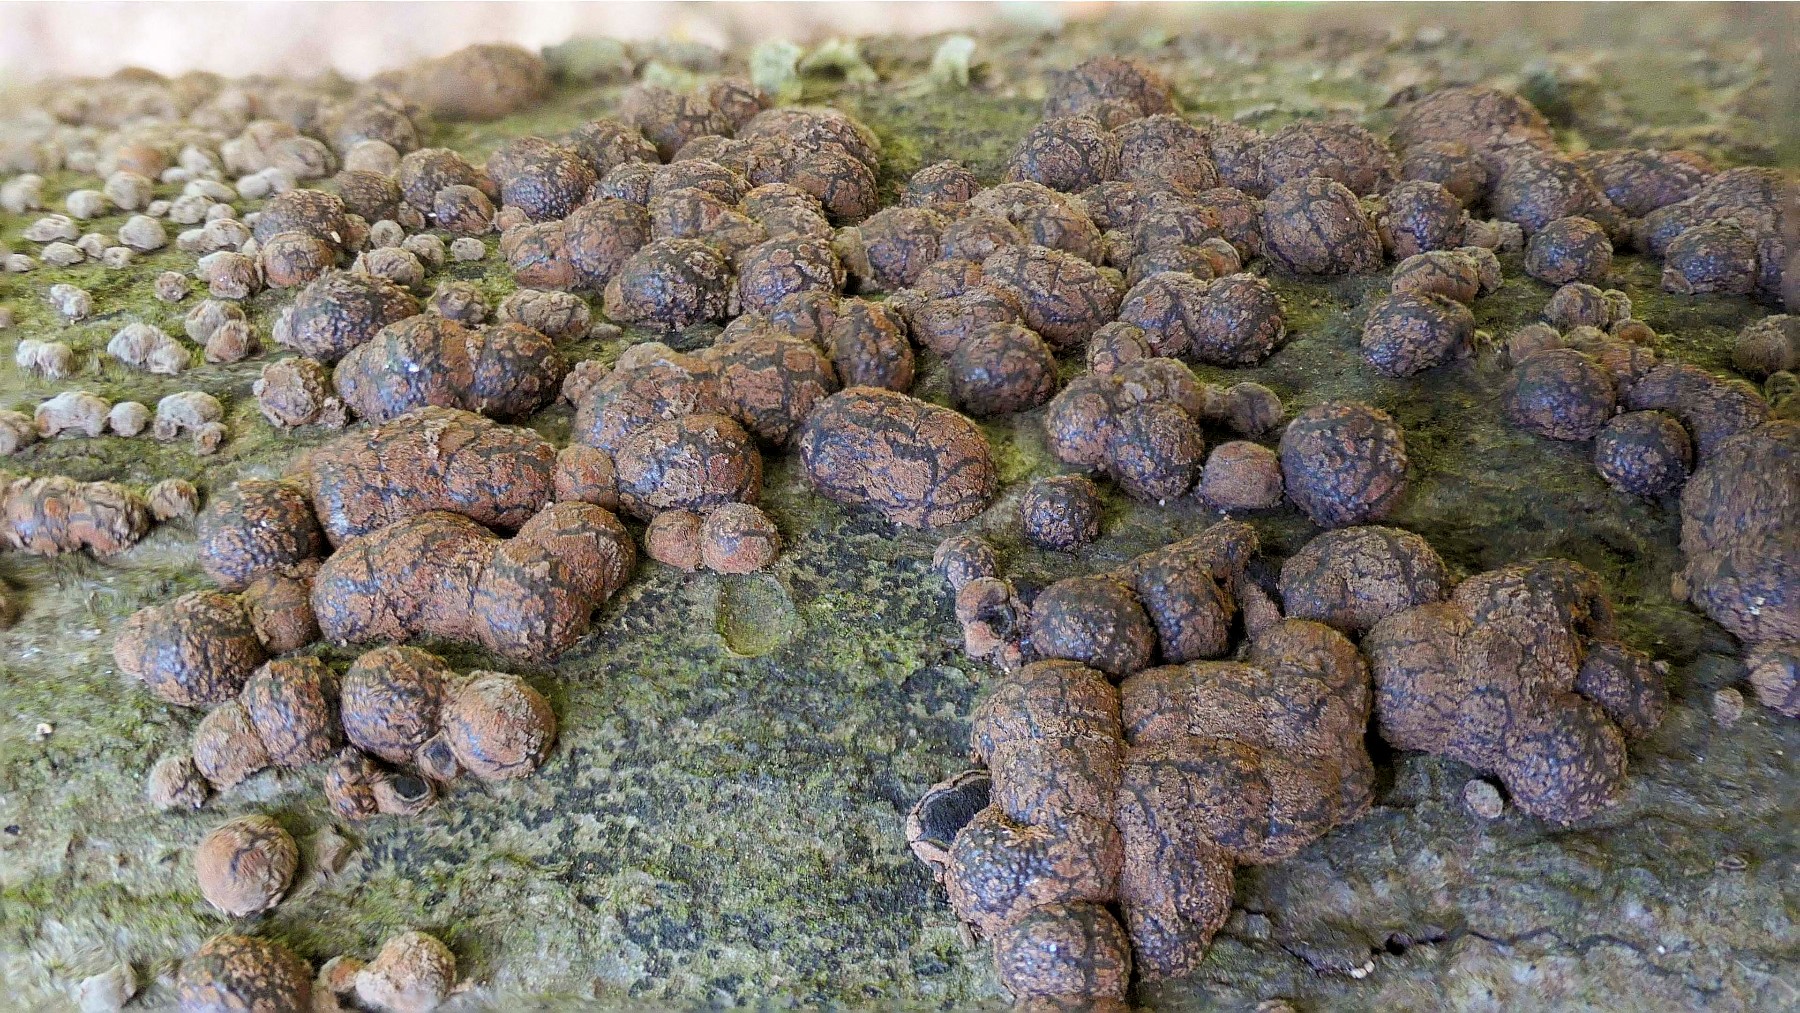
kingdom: Fungi
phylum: Ascomycota
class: Sordariomycetes
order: Xylariales
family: Hypoxylaceae
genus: Jackrogersella
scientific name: Jackrogersella cohaerens
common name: sammenflydende kulbær
